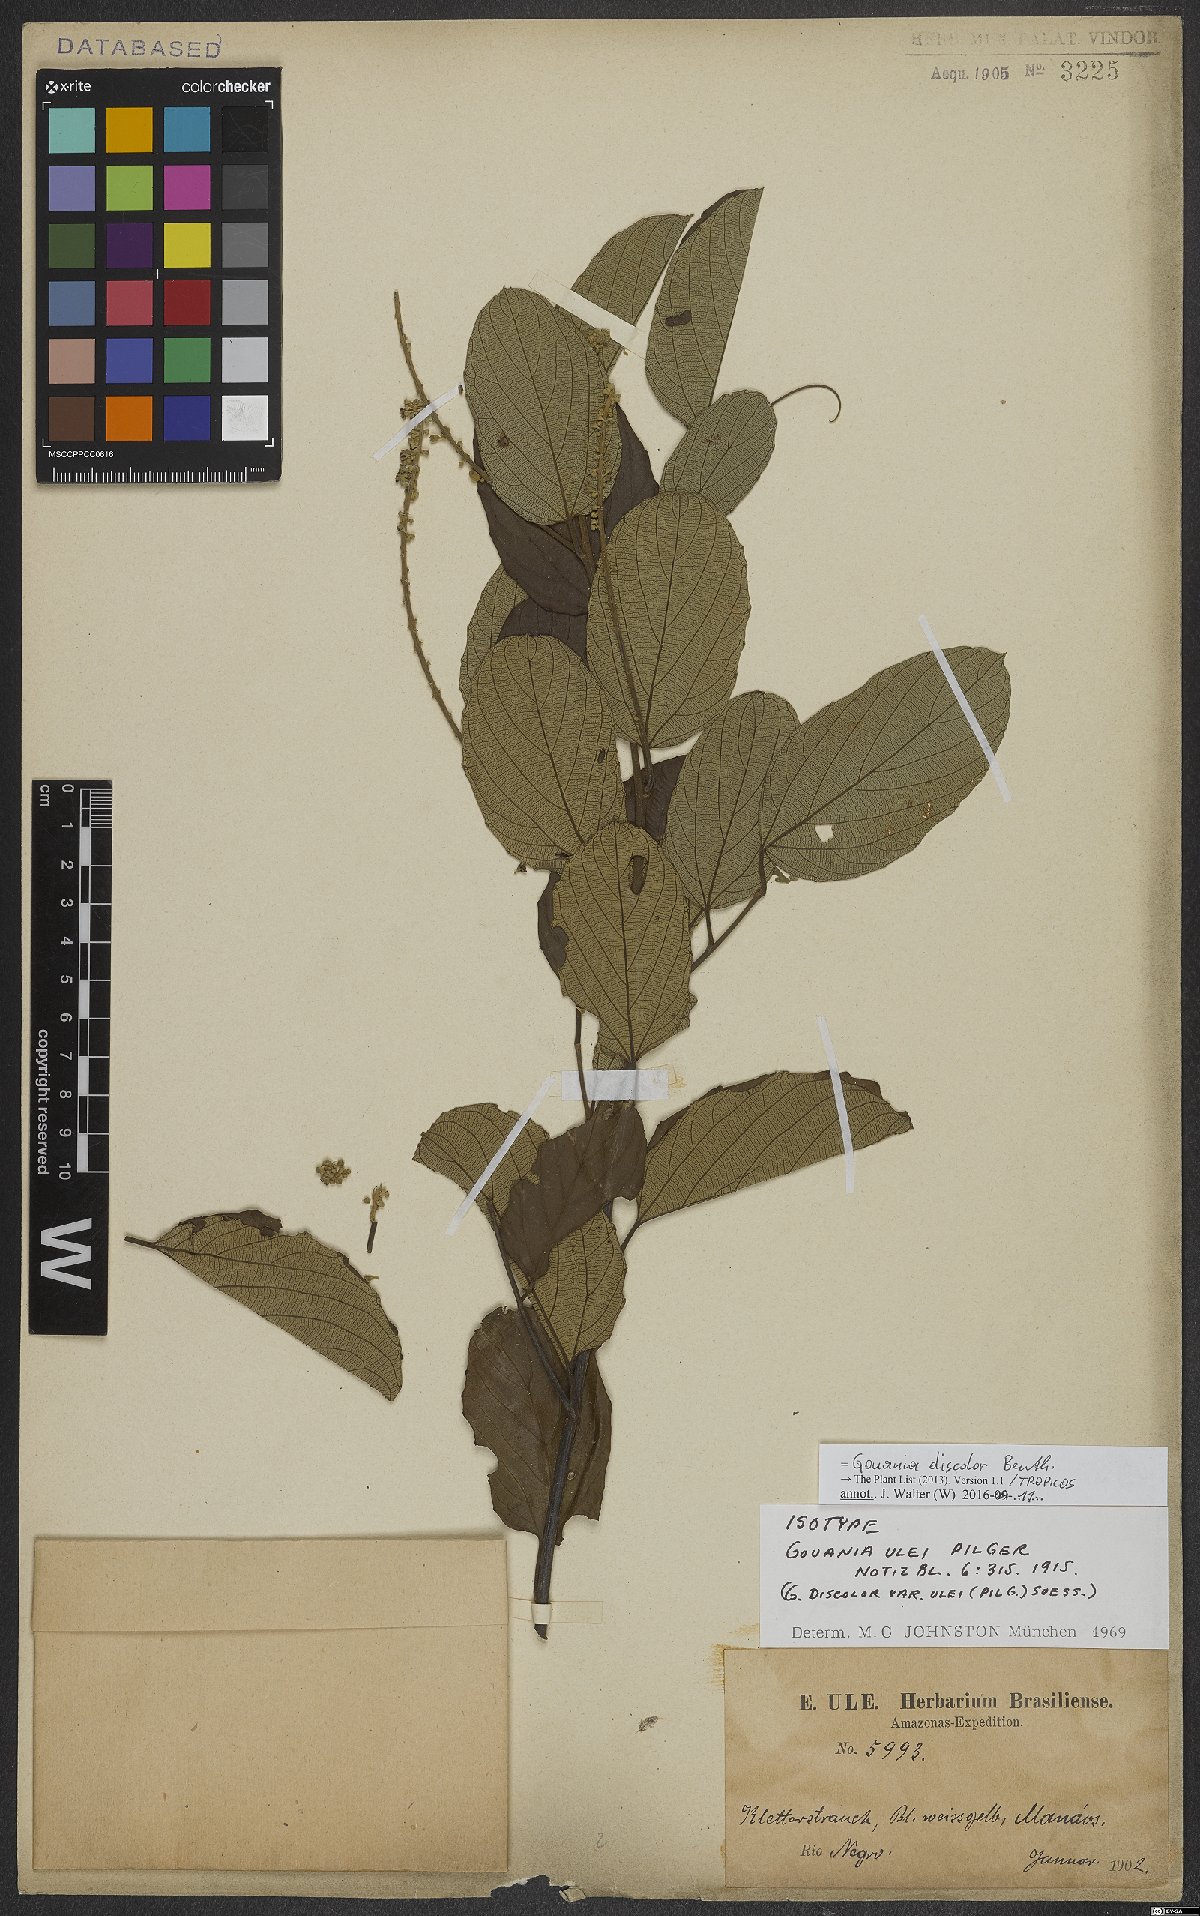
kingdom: Plantae
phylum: Tracheophyta
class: Magnoliopsida
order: Rosales
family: Rhamnaceae
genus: Gouania
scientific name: Gouania discolor
